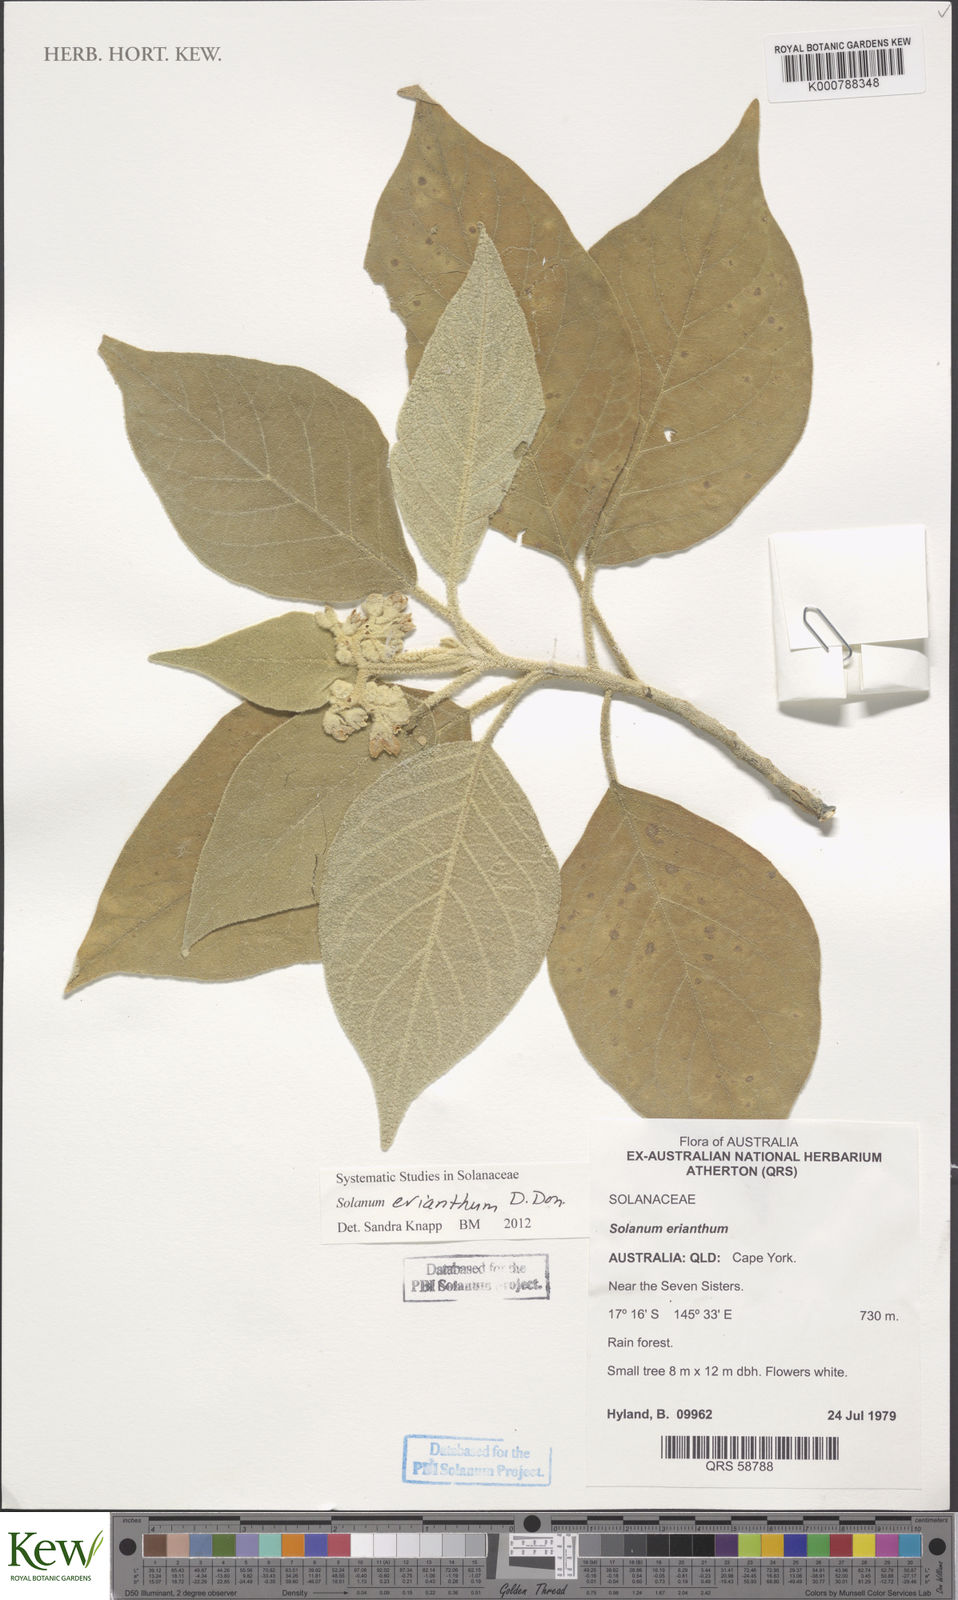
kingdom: Plantae
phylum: Tracheophyta
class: Magnoliopsida
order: Solanales
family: Solanaceae
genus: Solanum
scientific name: Solanum erianthum
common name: Tobacco-tree
